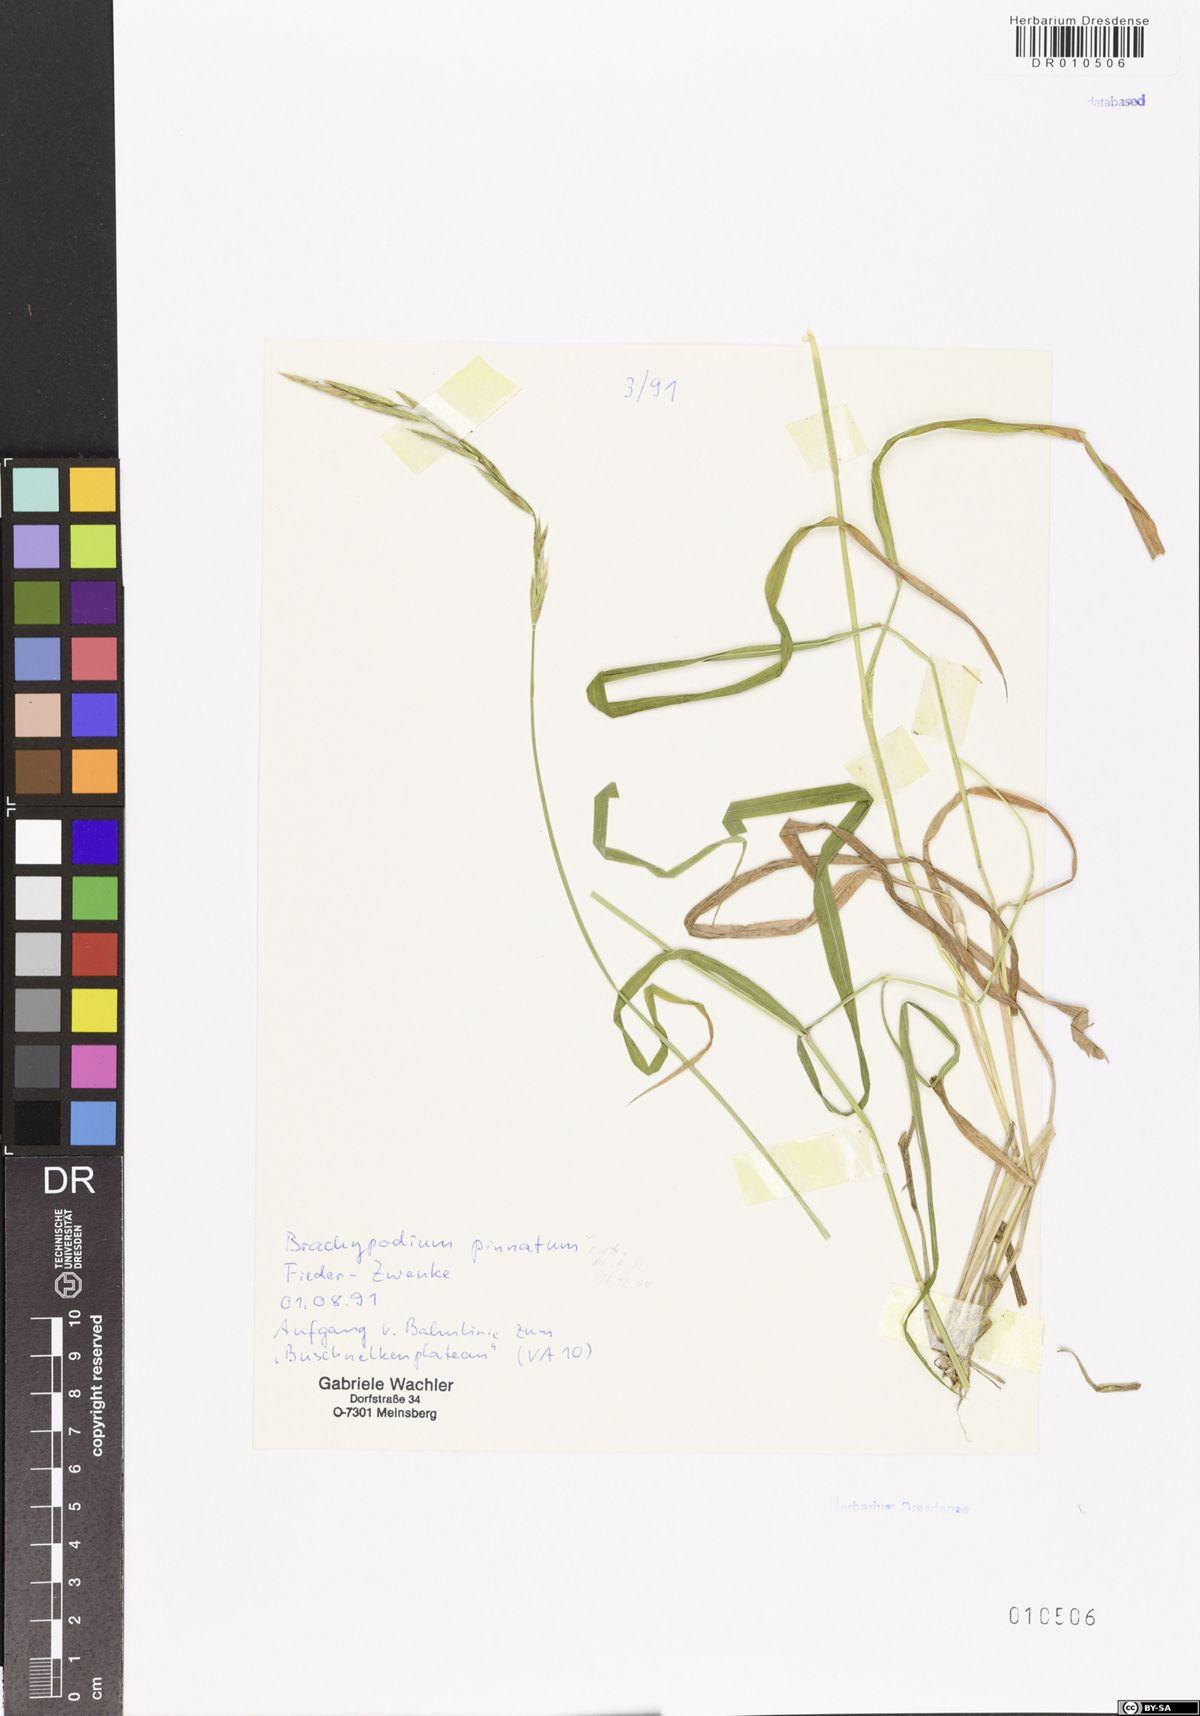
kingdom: Plantae
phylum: Tracheophyta
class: Liliopsida
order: Poales
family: Poaceae
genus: Brachypodium
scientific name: Brachypodium pinnatum
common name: Tor grass
